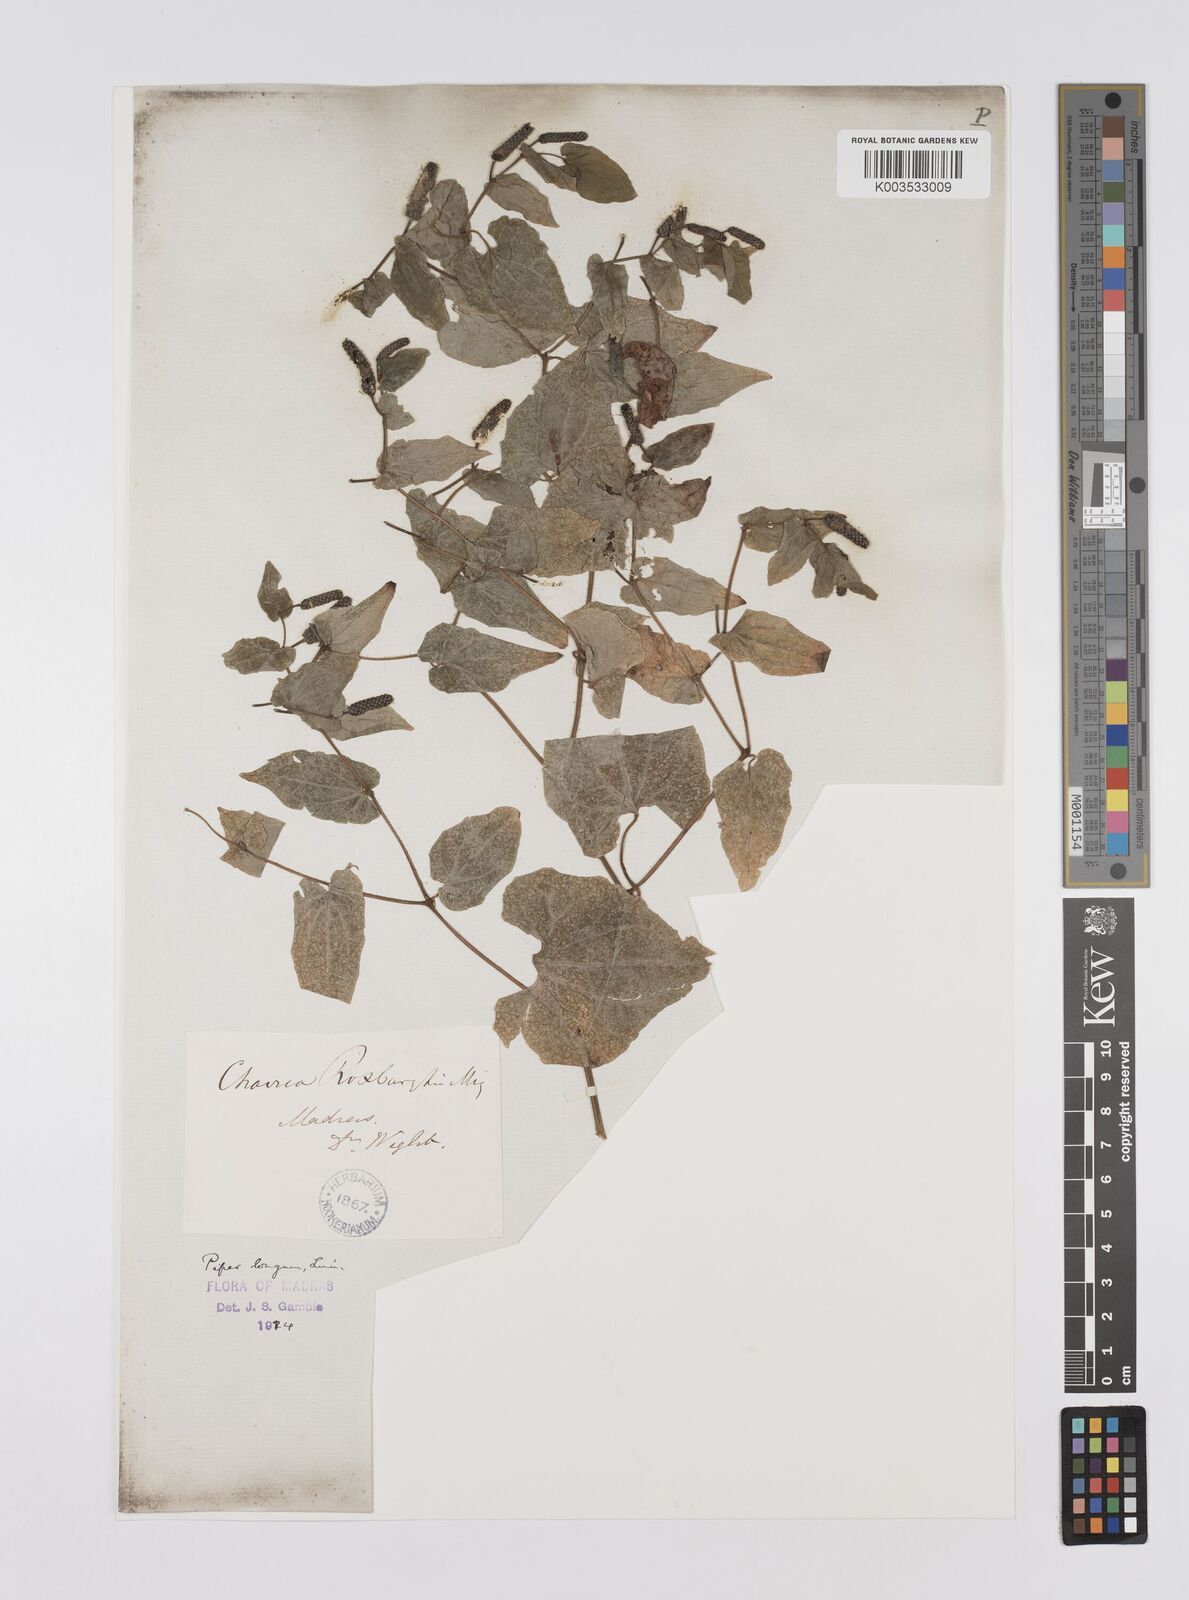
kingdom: Plantae
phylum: Tracheophyta
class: Magnoliopsida
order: Piperales
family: Piperaceae
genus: Piper
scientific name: Piper retrofractum
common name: Javanese long pepper
